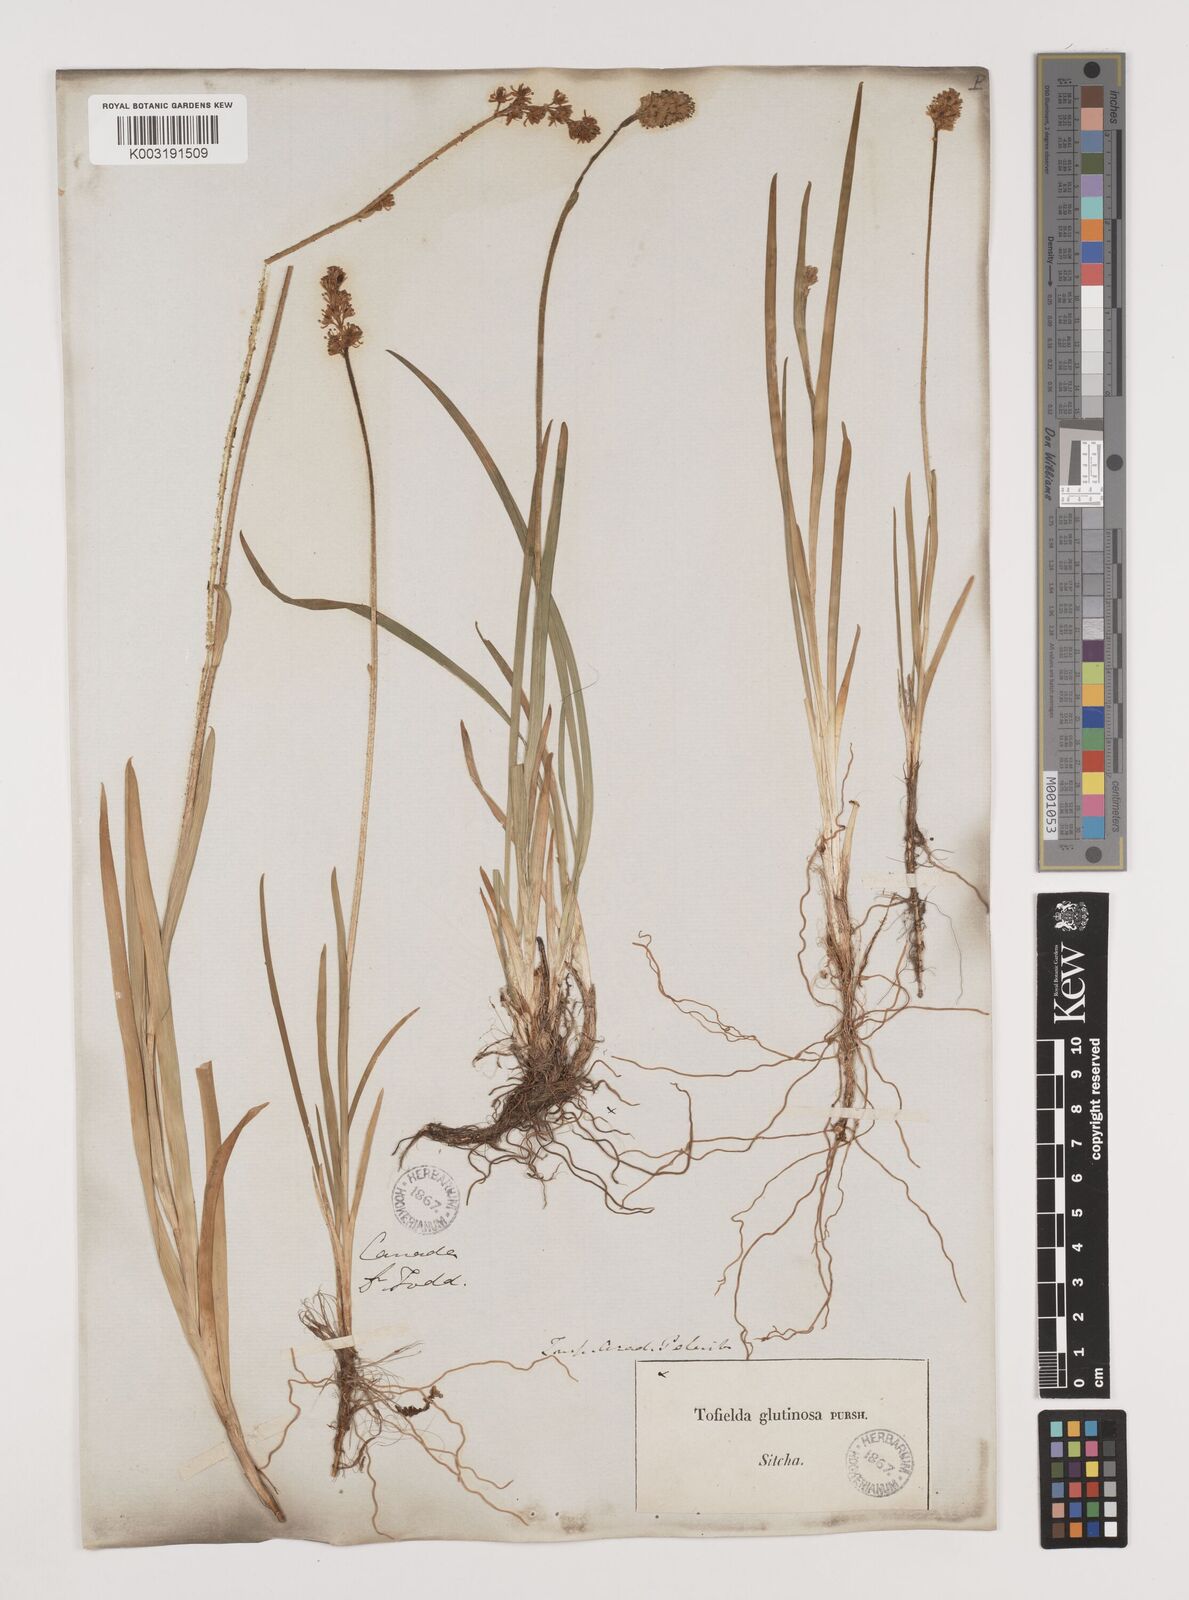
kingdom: Plantae
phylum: Tracheophyta
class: Liliopsida
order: Alismatales
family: Tofieldiaceae
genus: Triantha
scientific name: Triantha glutinosa
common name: Glutinous tofieldia
